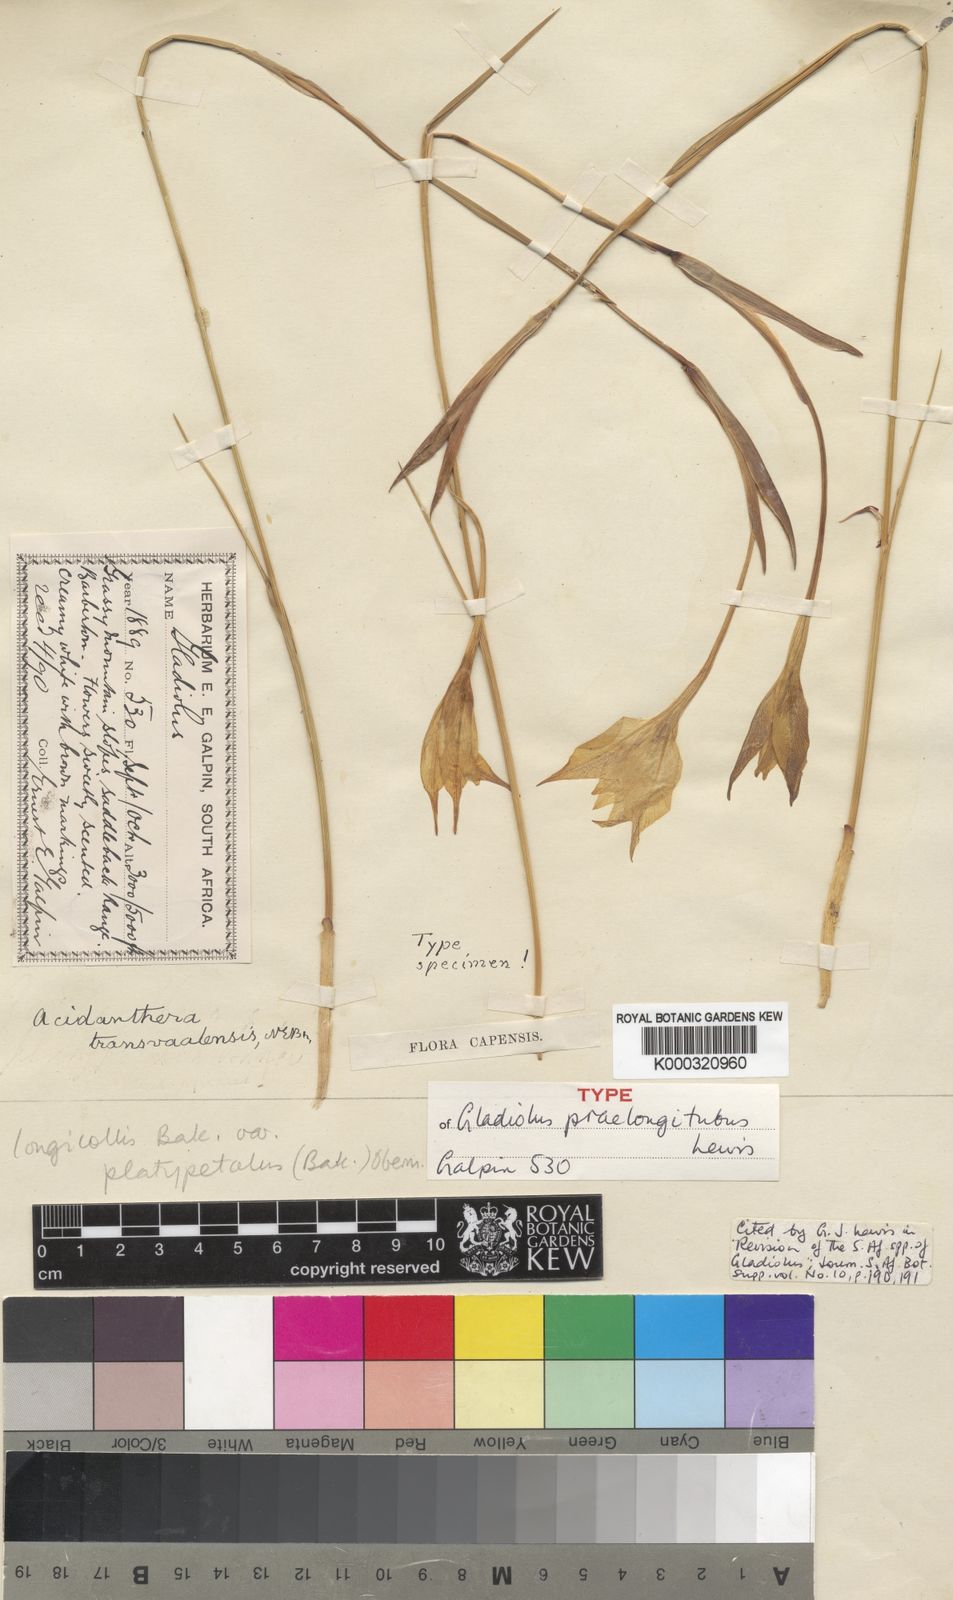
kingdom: Plantae
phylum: Tracheophyta
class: Liliopsida
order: Asparagales
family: Iridaceae
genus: Gladiolus
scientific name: Gladiolus longicollis
